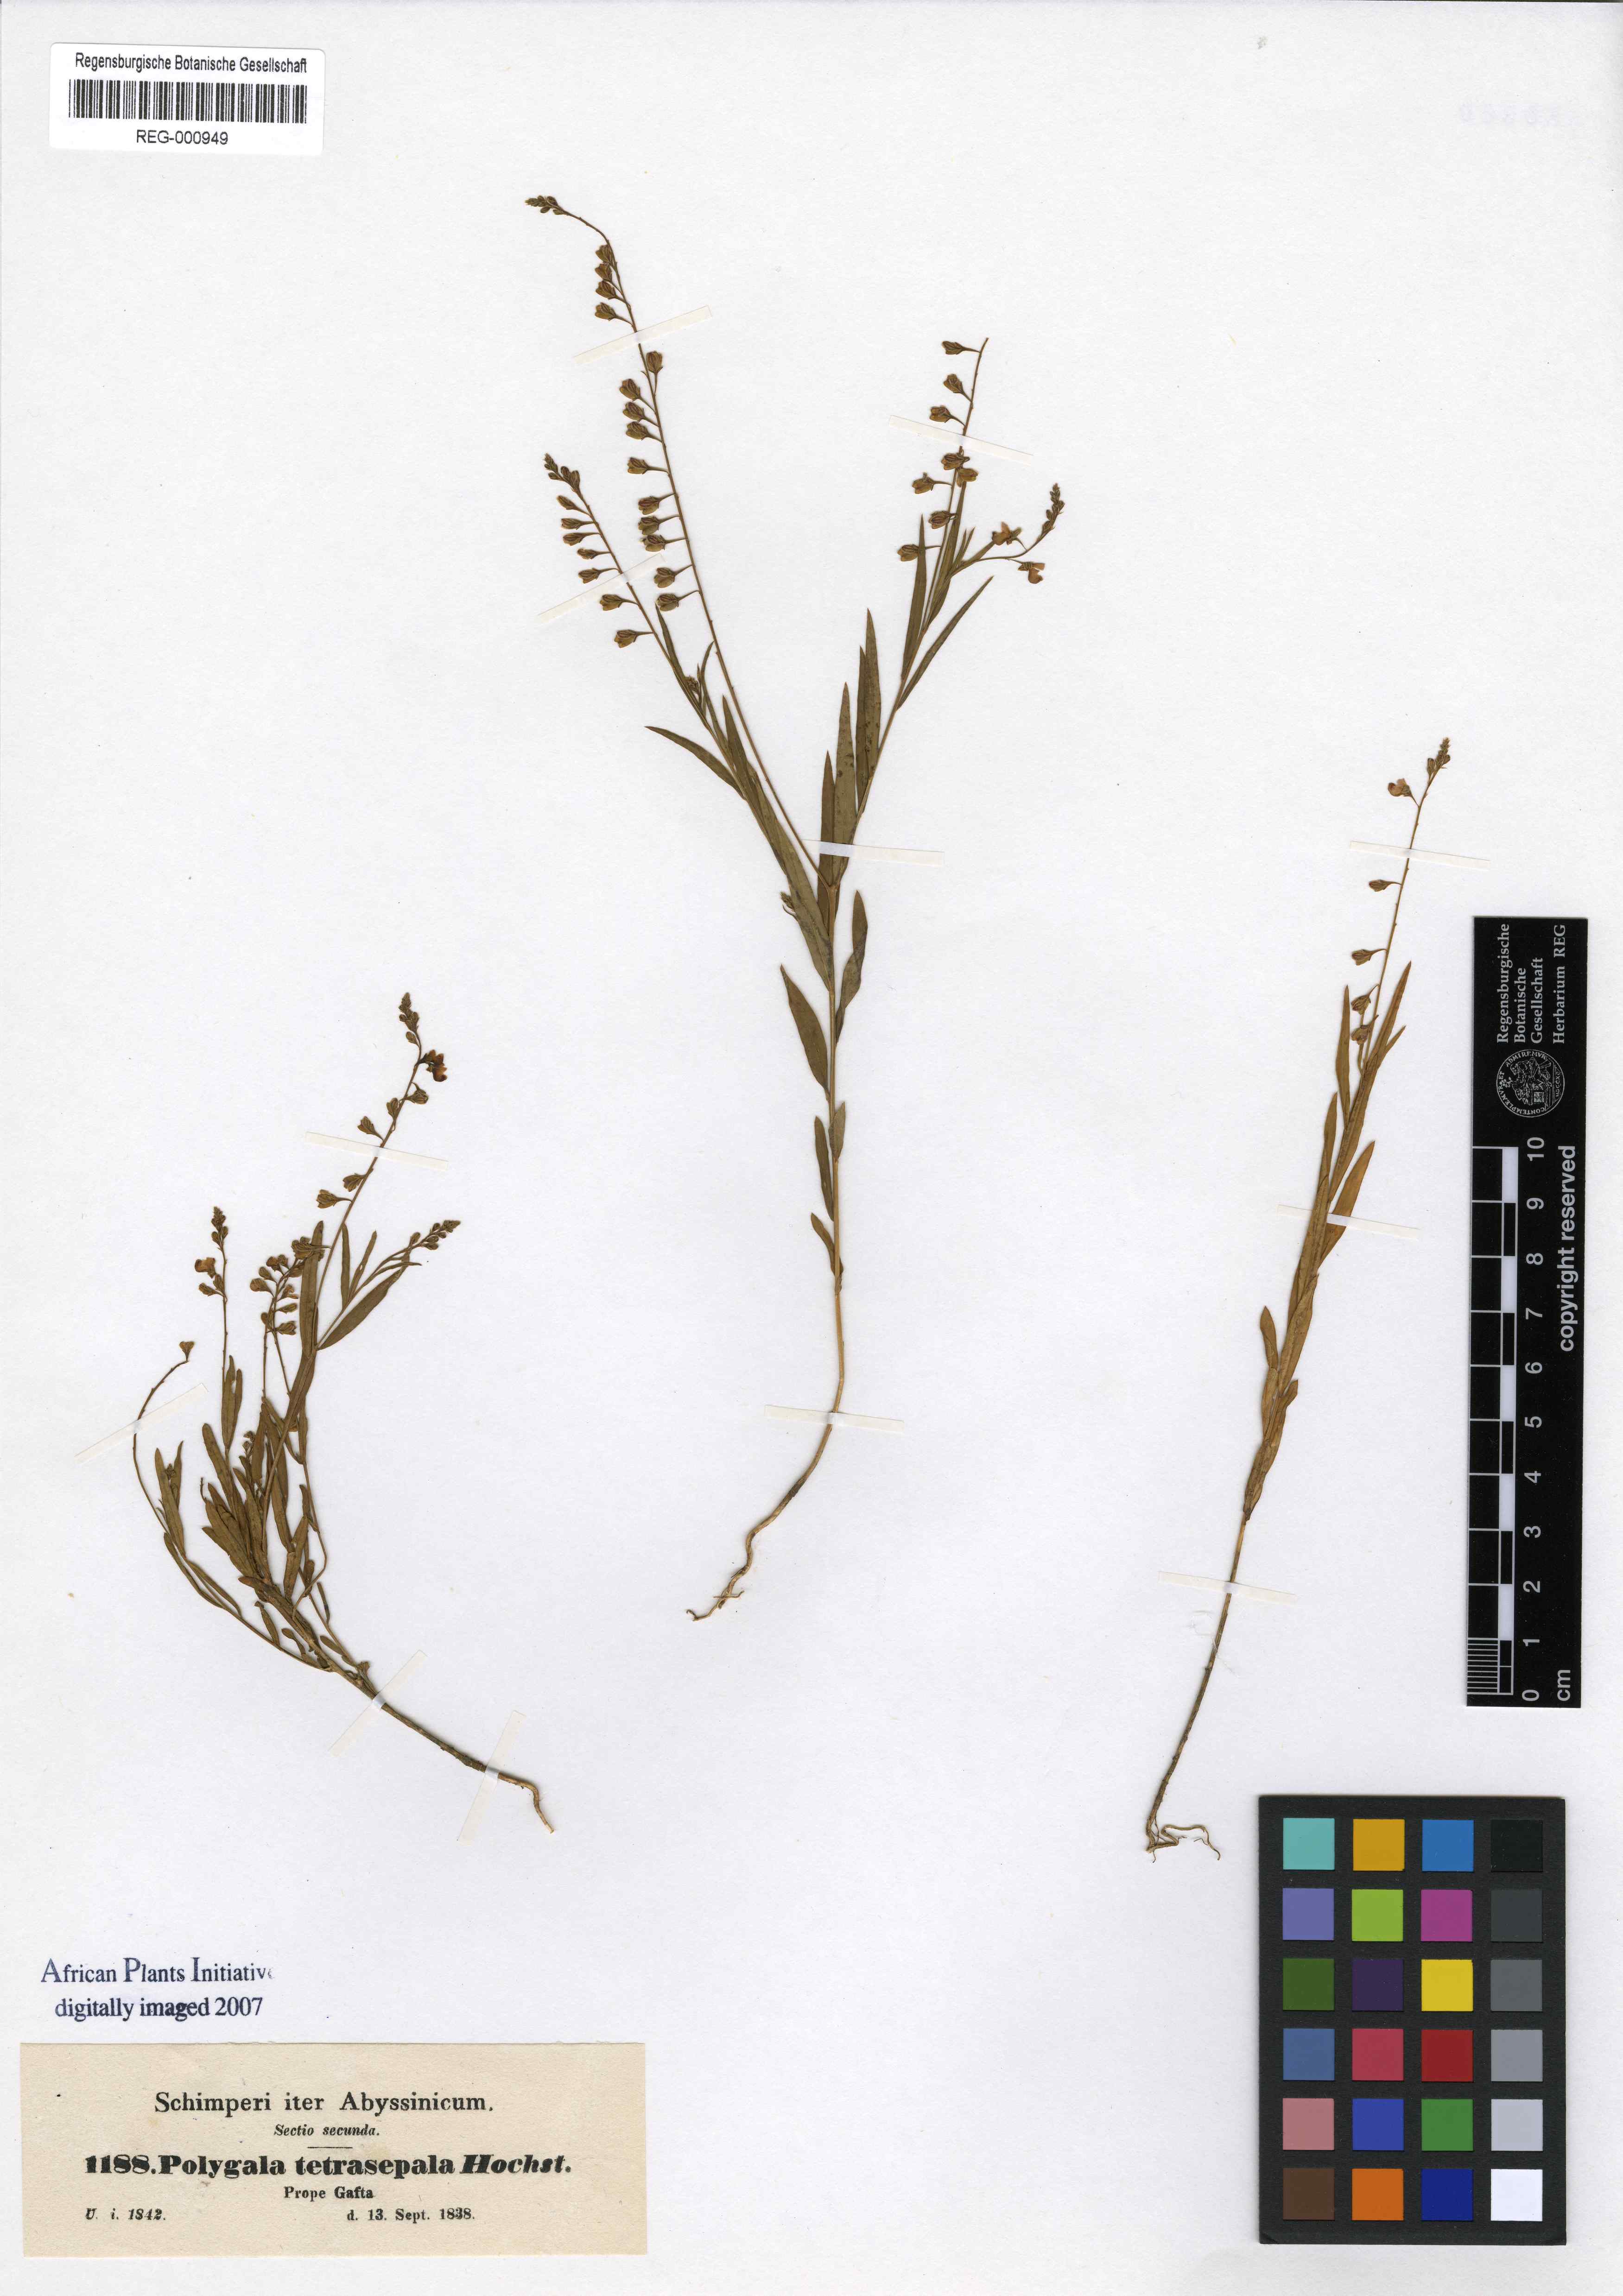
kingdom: Plantae
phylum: Tracheophyta
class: Magnoliopsida
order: Fabales
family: Polygalaceae
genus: Polygala
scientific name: Polygala petitiana
